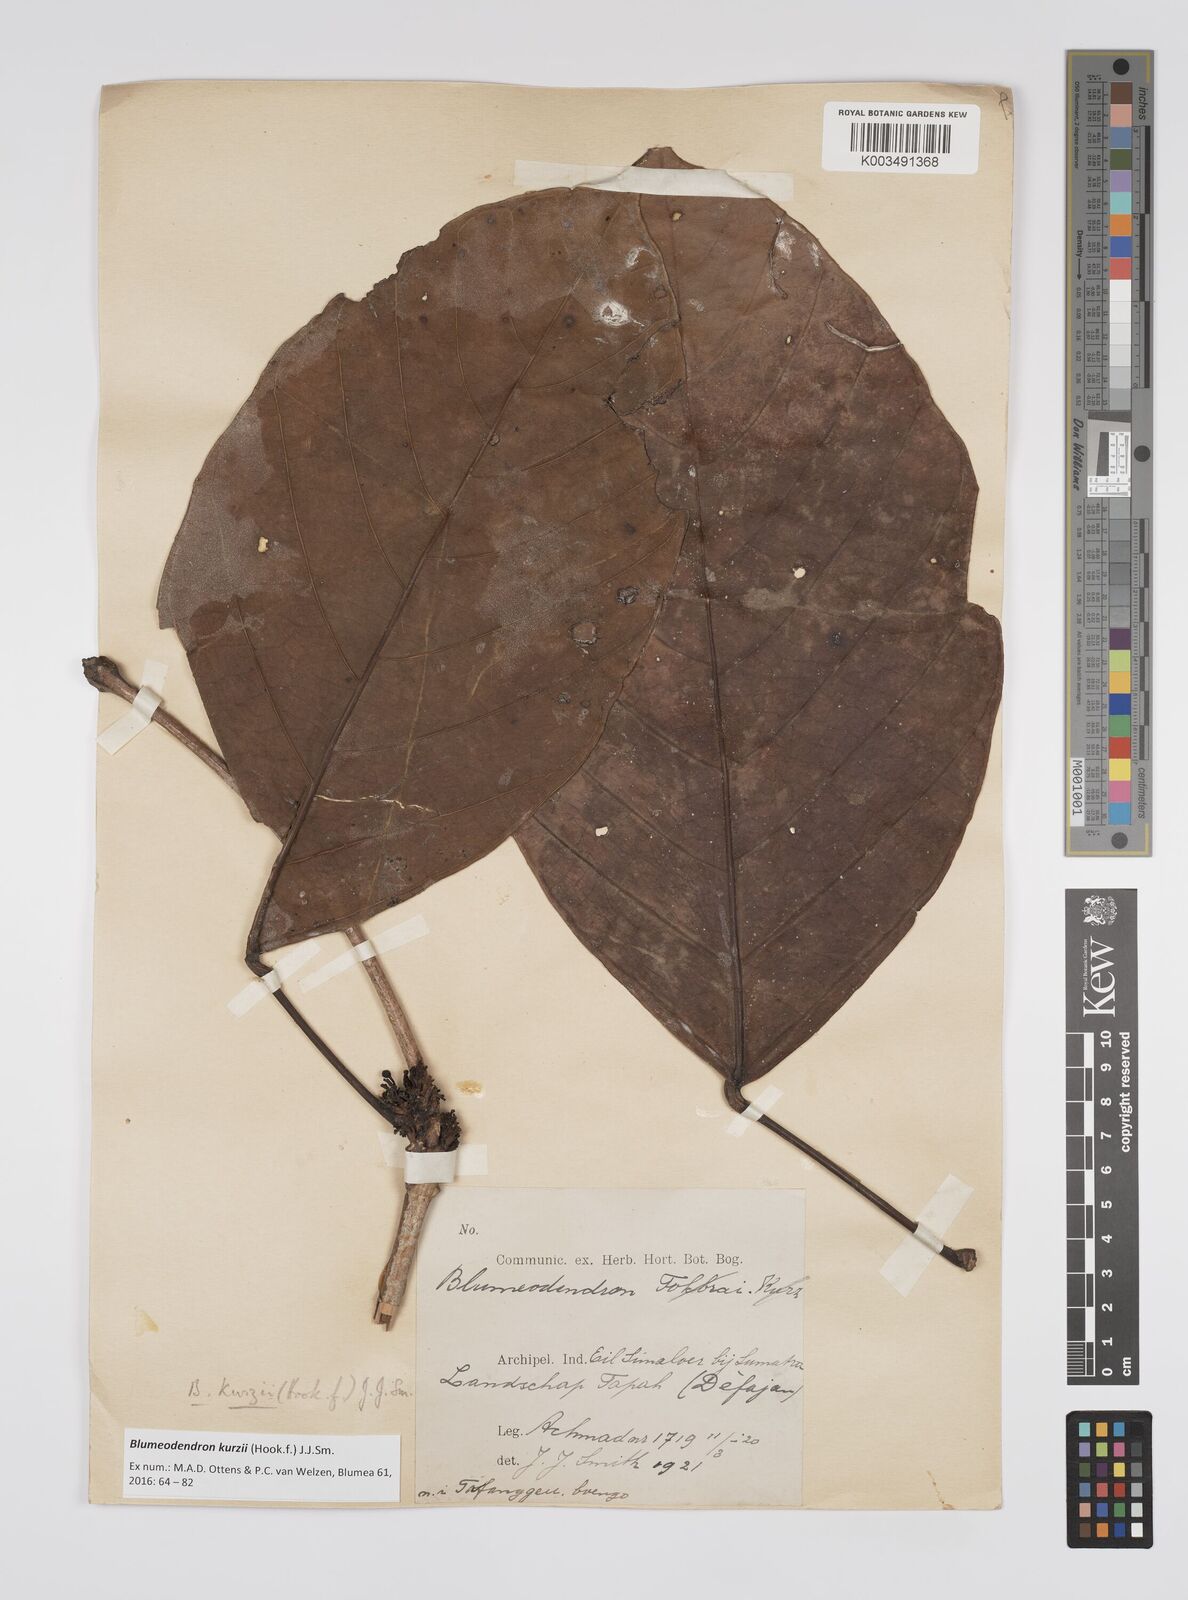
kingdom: Plantae
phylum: Tracheophyta
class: Magnoliopsida
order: Malpighiales
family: Euphorbiaceae
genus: Blumeodendron
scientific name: Blumeodendron kurzii
